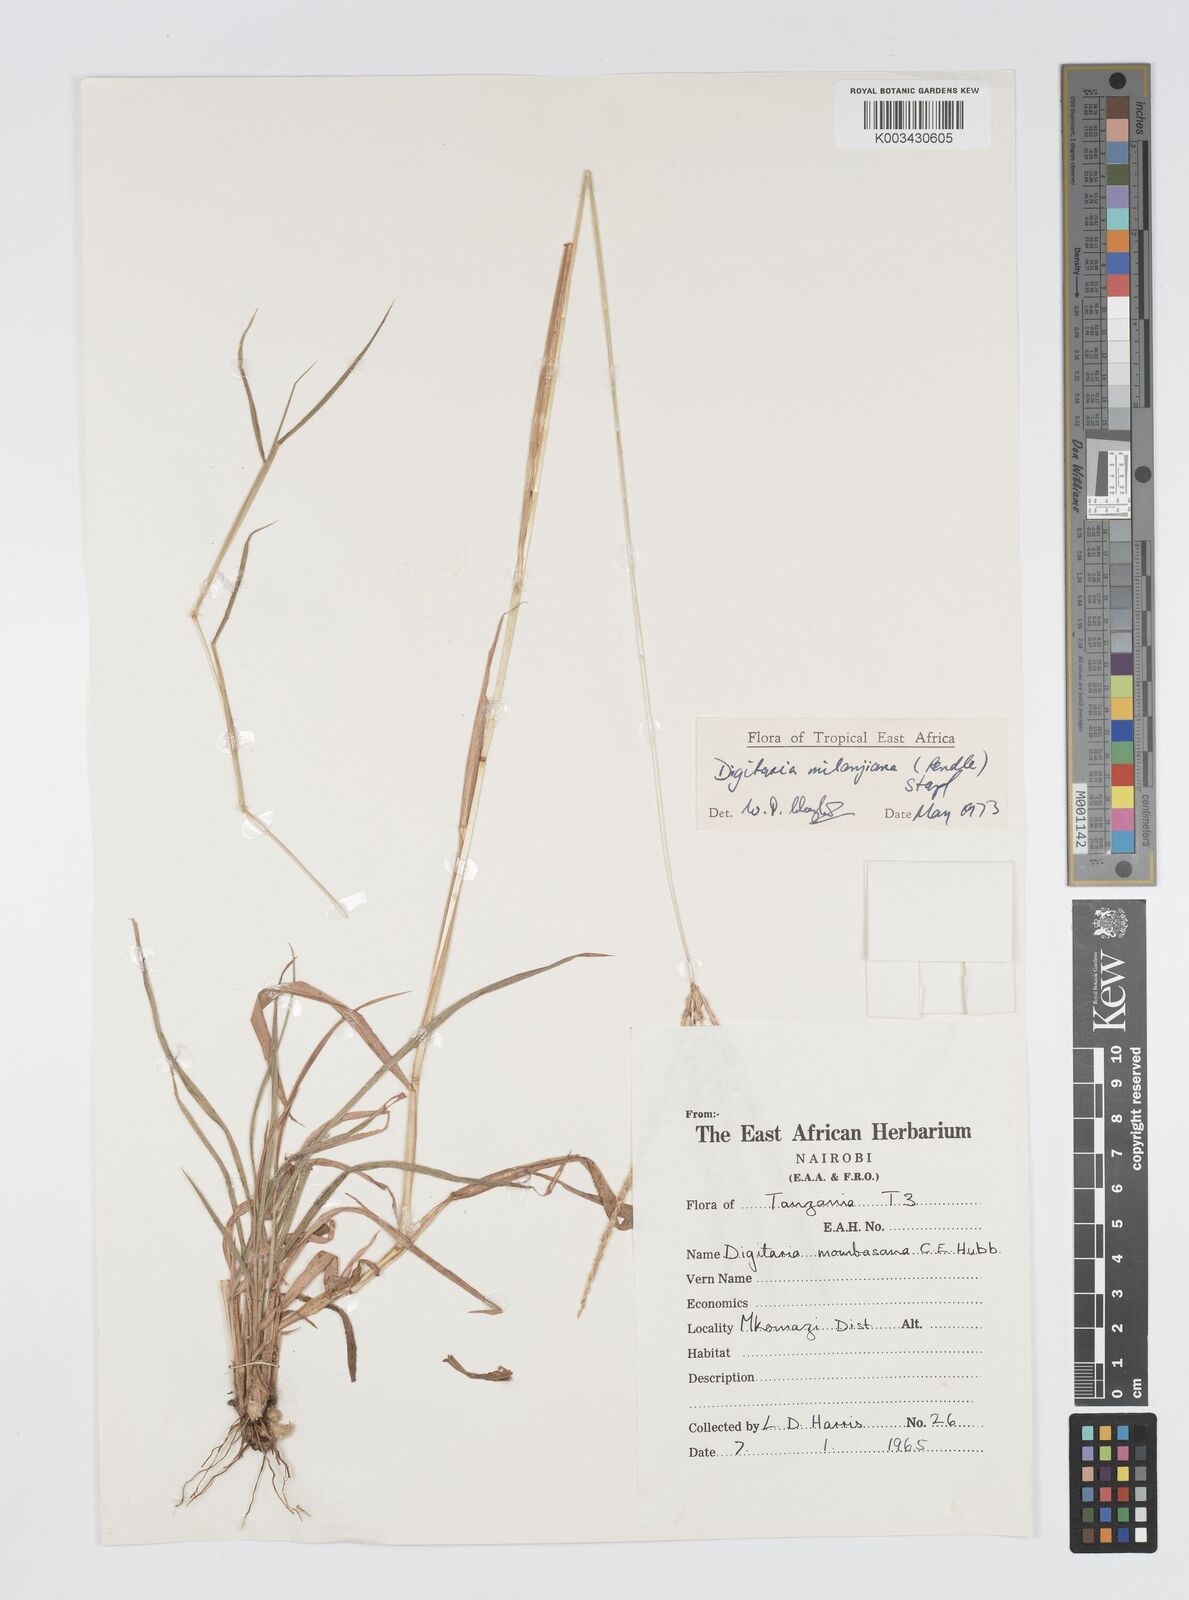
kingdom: Plantae
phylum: Tracheophyta
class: Liliopsida
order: Poales
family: Poaceae
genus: Digitaria
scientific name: Digitaria milanjiana
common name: Madagascar crabgrass
